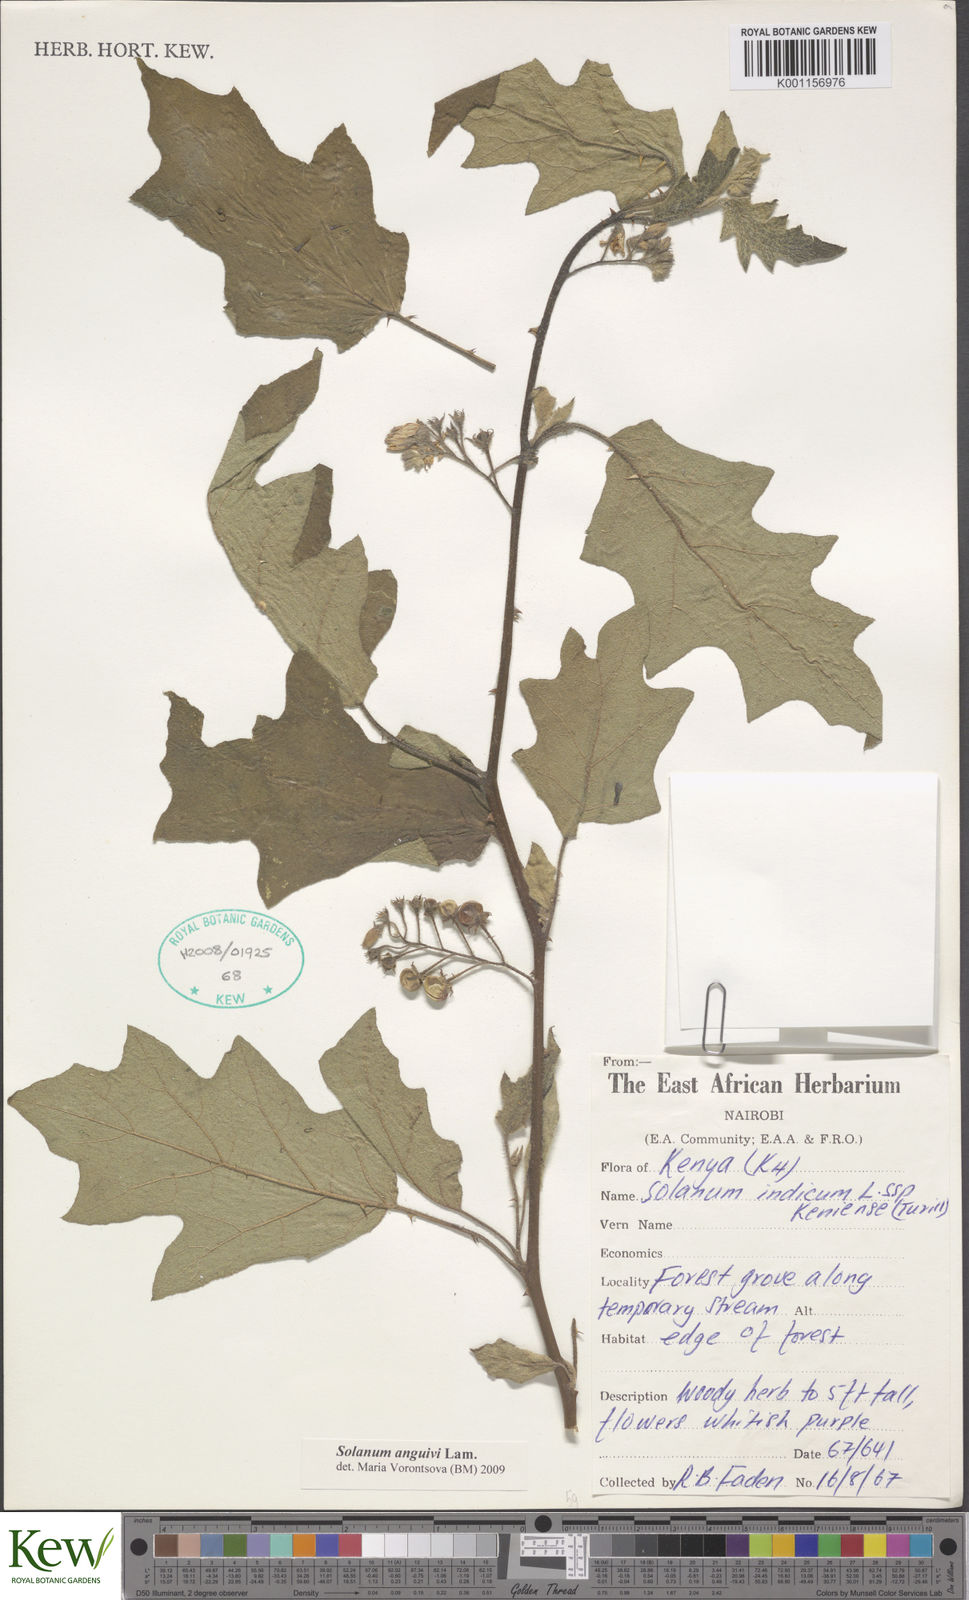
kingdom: Plantae
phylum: Tracheophyta
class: Magnoliopsida
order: Solanales
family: Solanaceae
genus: Solanum
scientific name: Solanum anguivi
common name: Forest bitterberry
